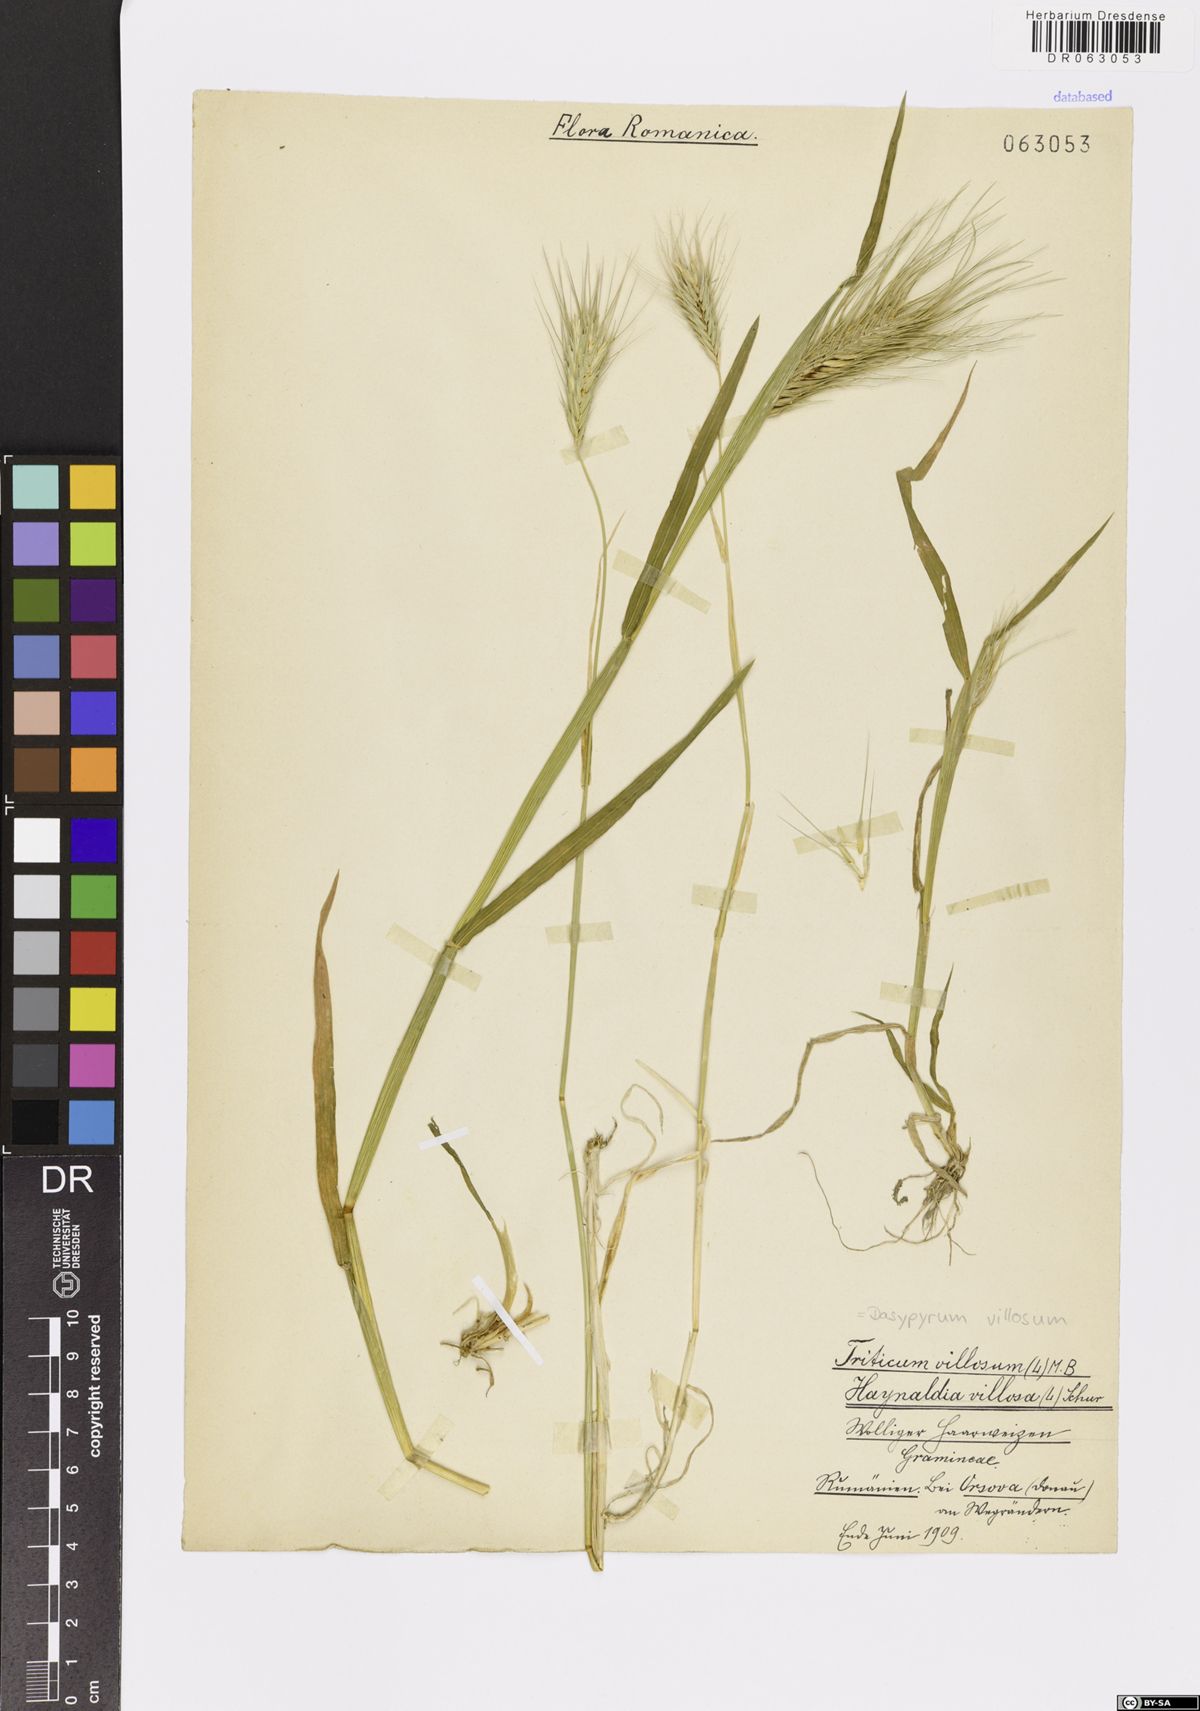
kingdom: Plantae
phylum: Tracheophyta
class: Liliopsida
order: Poales
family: Poaceae
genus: Dasypyrum
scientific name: Dasypyrum villosum
